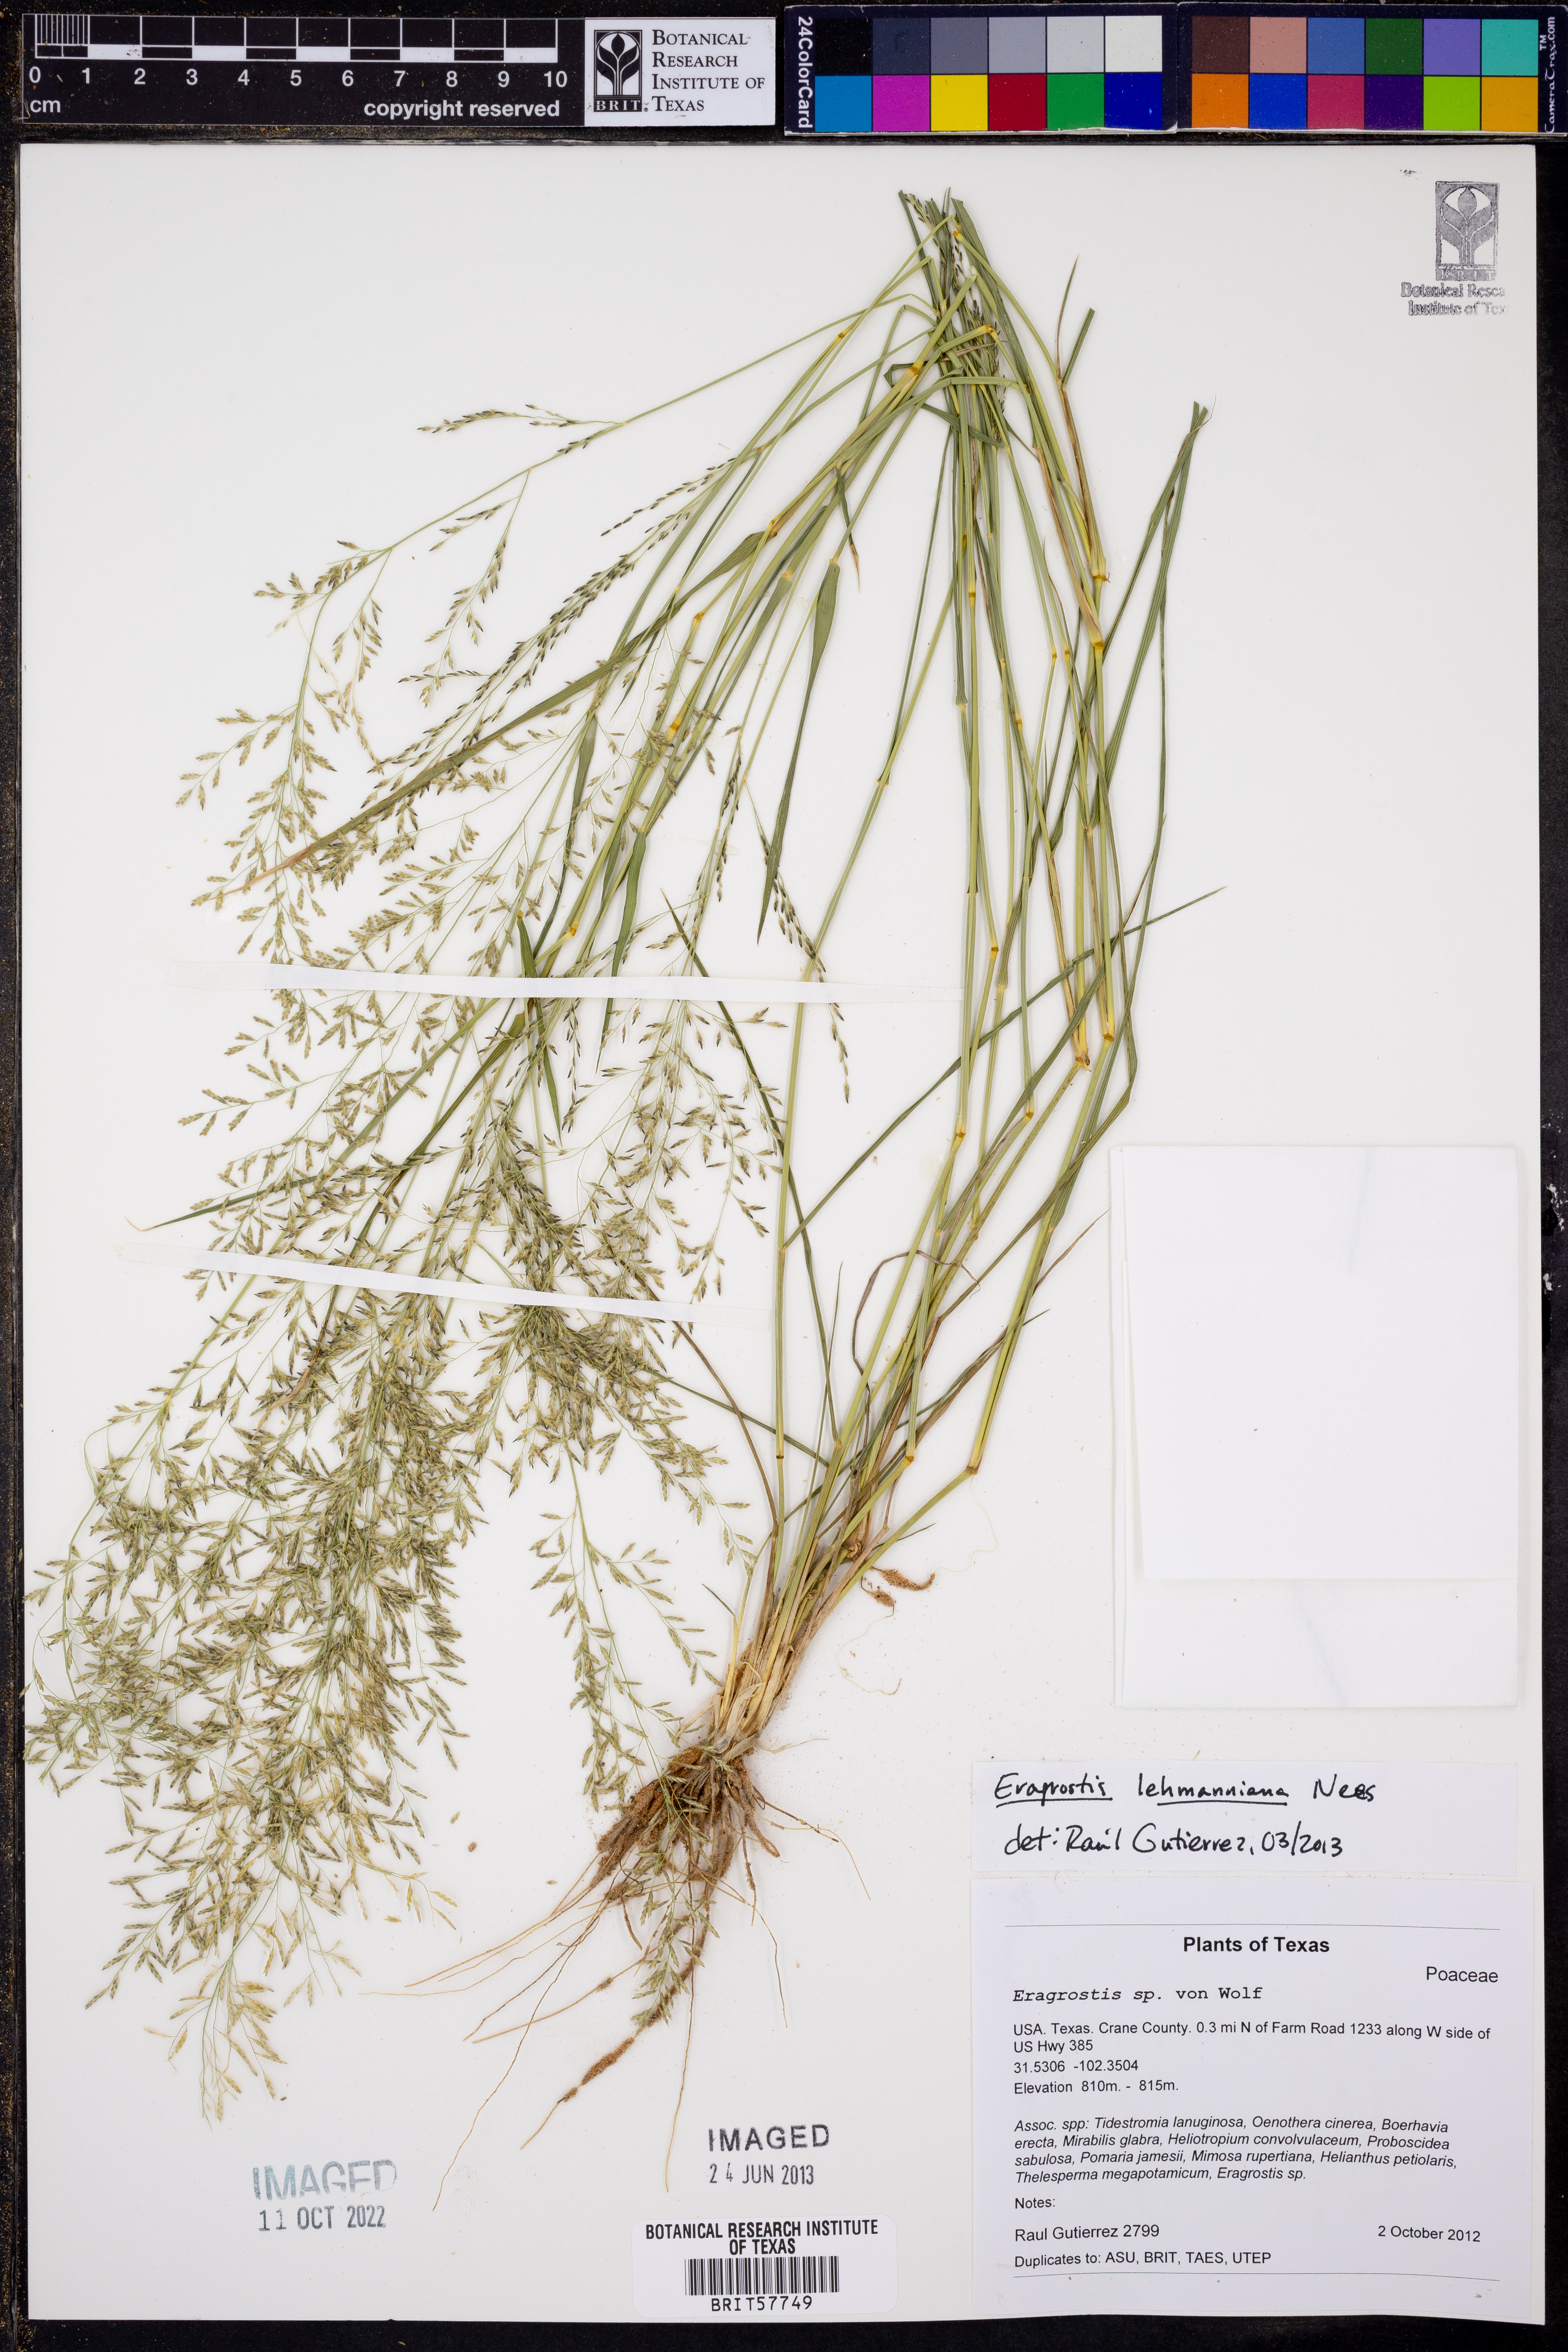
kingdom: Plantae
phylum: Tracheophyta
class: Liliopsida
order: Poales
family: Poaceae
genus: Eragrostis
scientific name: Eragrostis lehmanniana
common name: Lehmann lovegrass
